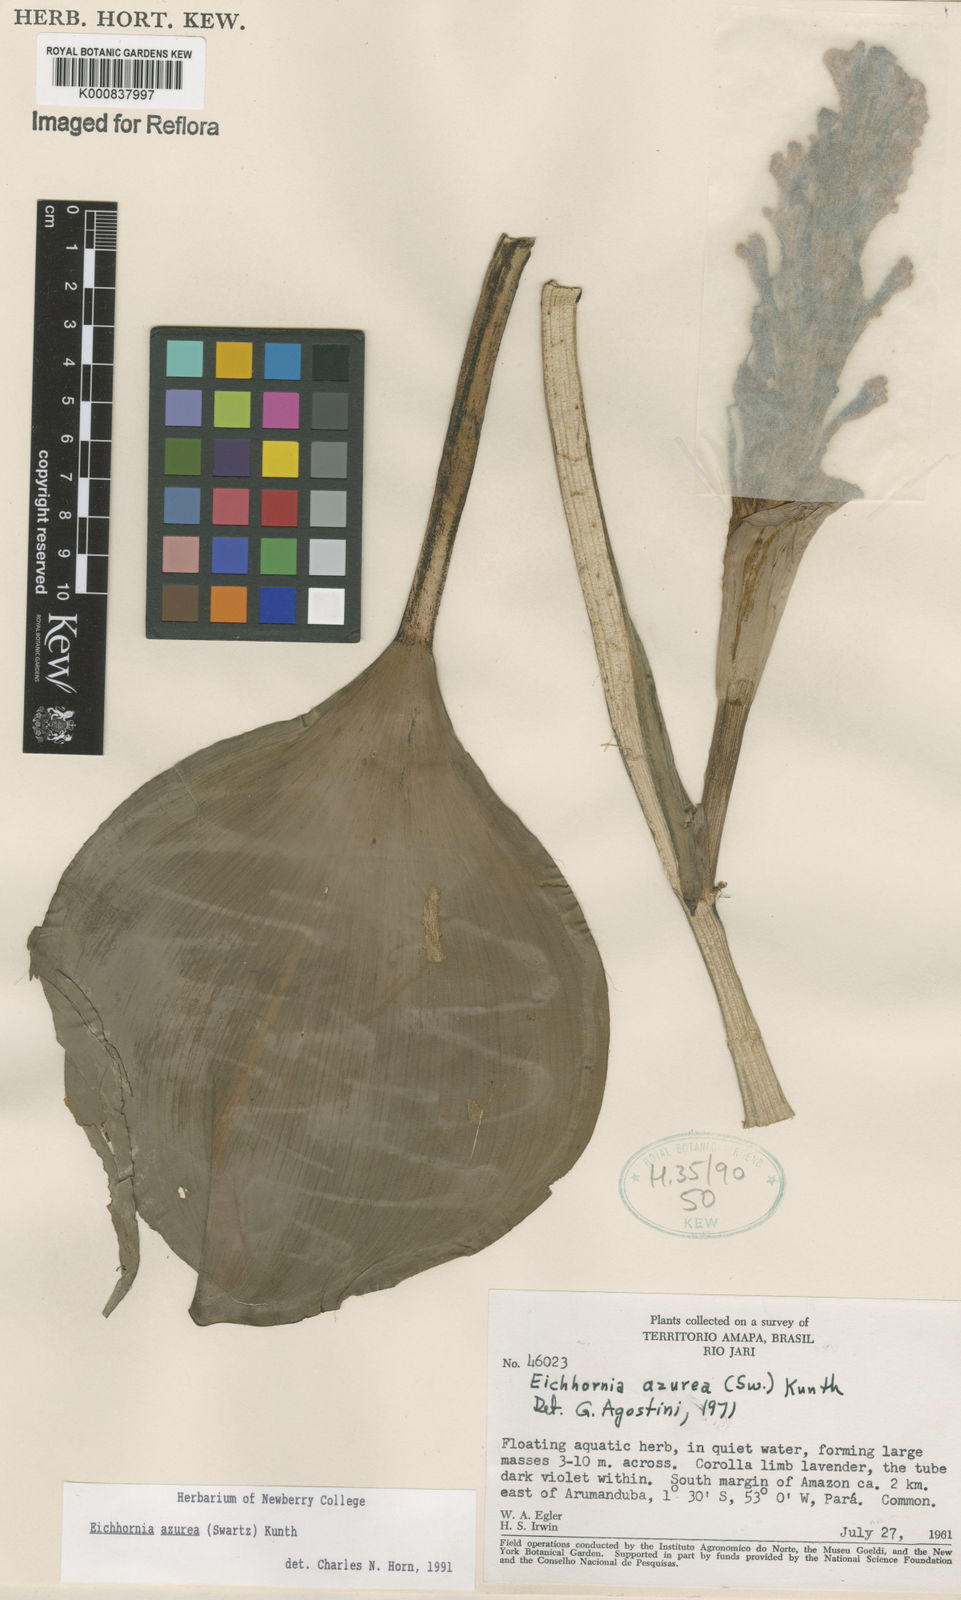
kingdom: Plantae
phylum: Tracheophyta
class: Liliopsida
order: Commelinales
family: Pontederiaceae
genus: Pontederia
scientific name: Pontederia azurea
